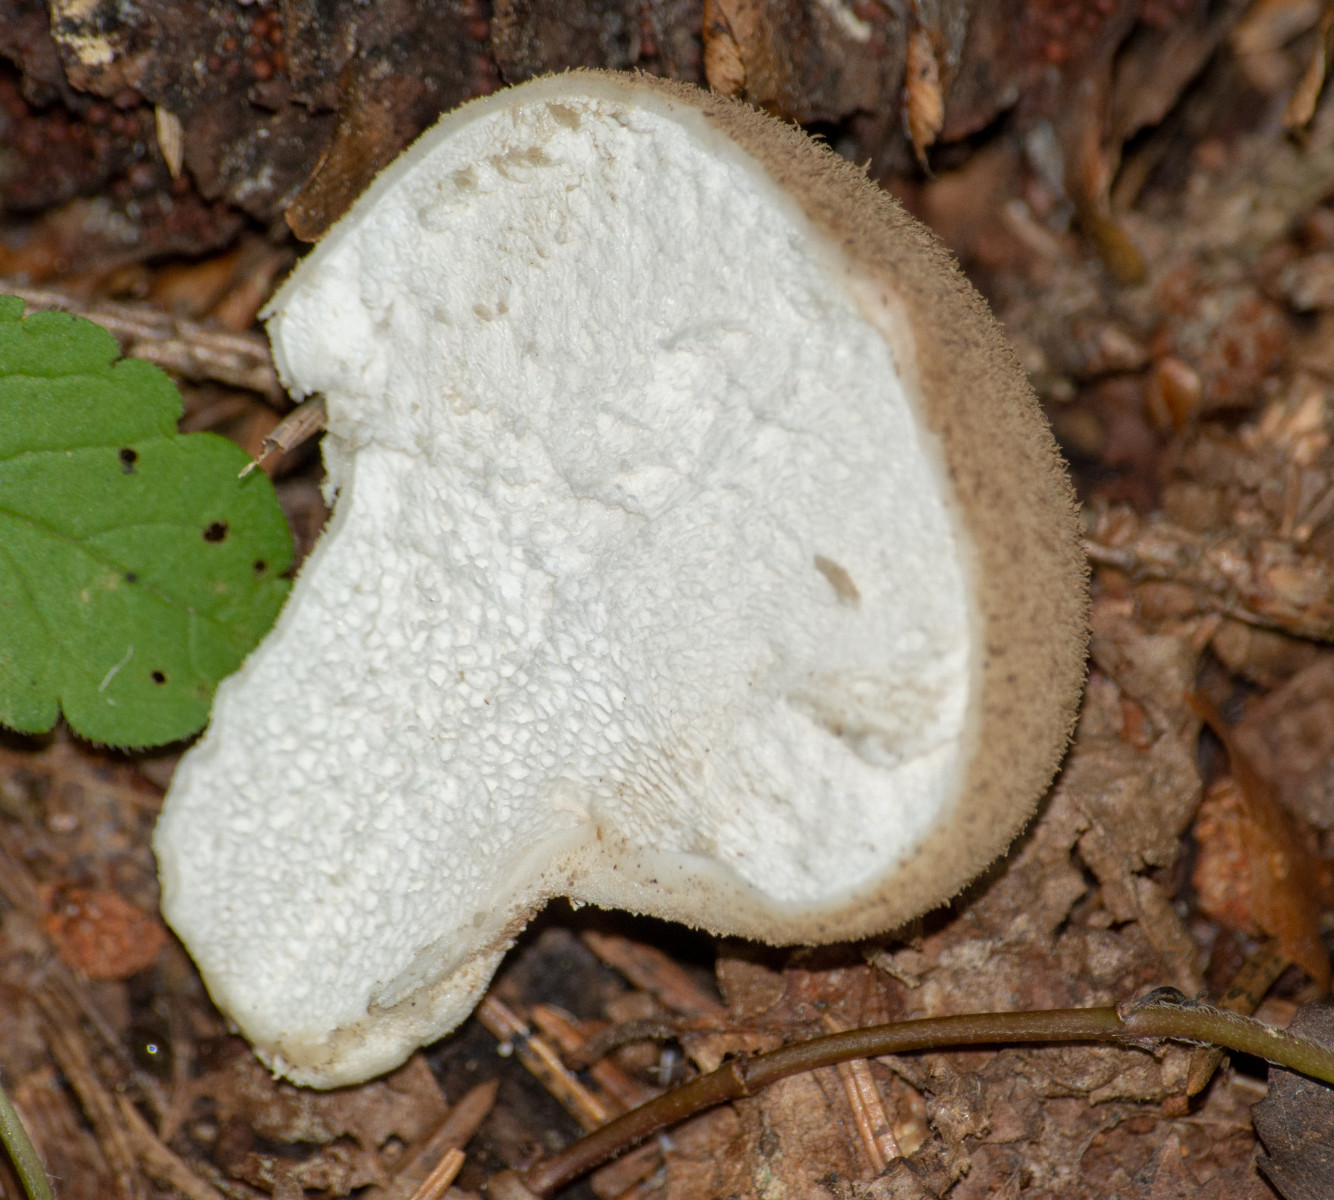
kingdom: Fungi
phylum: Basidiomycota
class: Agaricomycetes
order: Agaricales
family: Agaricaceae
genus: Lycoperdon
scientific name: Lycoperdon
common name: støvbold
